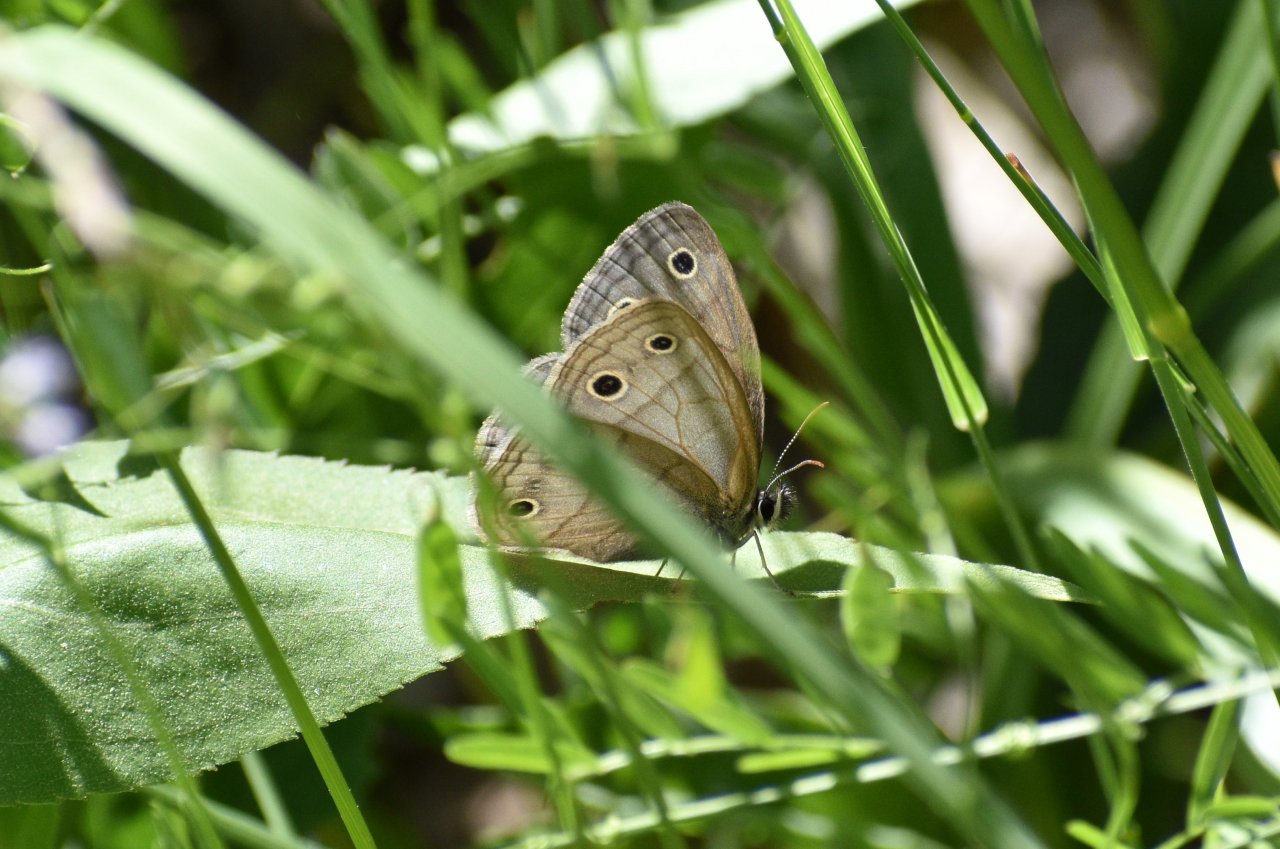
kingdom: Animalia
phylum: Arthropoda
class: Insecta
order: Lepidoptera
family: Nymphalidae
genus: Euptychia
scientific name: Euptychia cymela
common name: Little Wood Satyr
